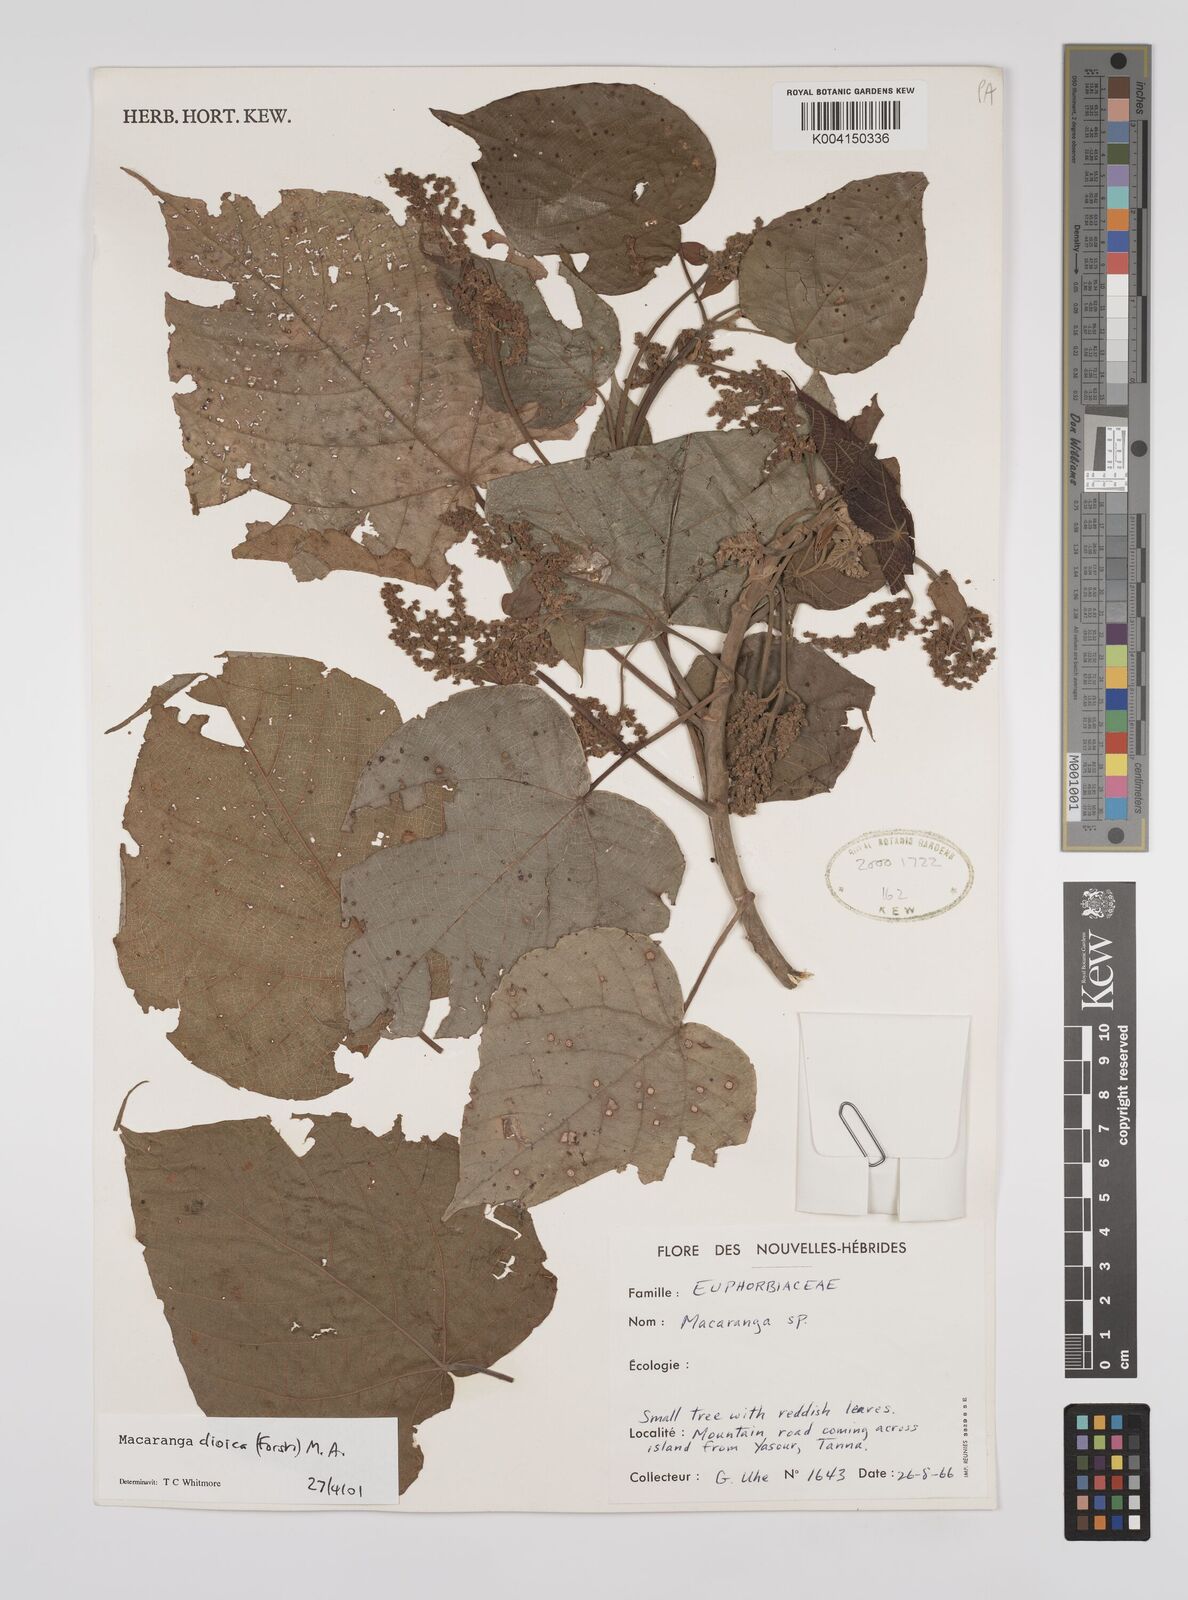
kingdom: Plantae
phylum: Tracheophyta
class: Magnoliopsida
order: Malpighiales
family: Euphorbiaceae
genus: Macaranga
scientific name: Macaranga dioica
